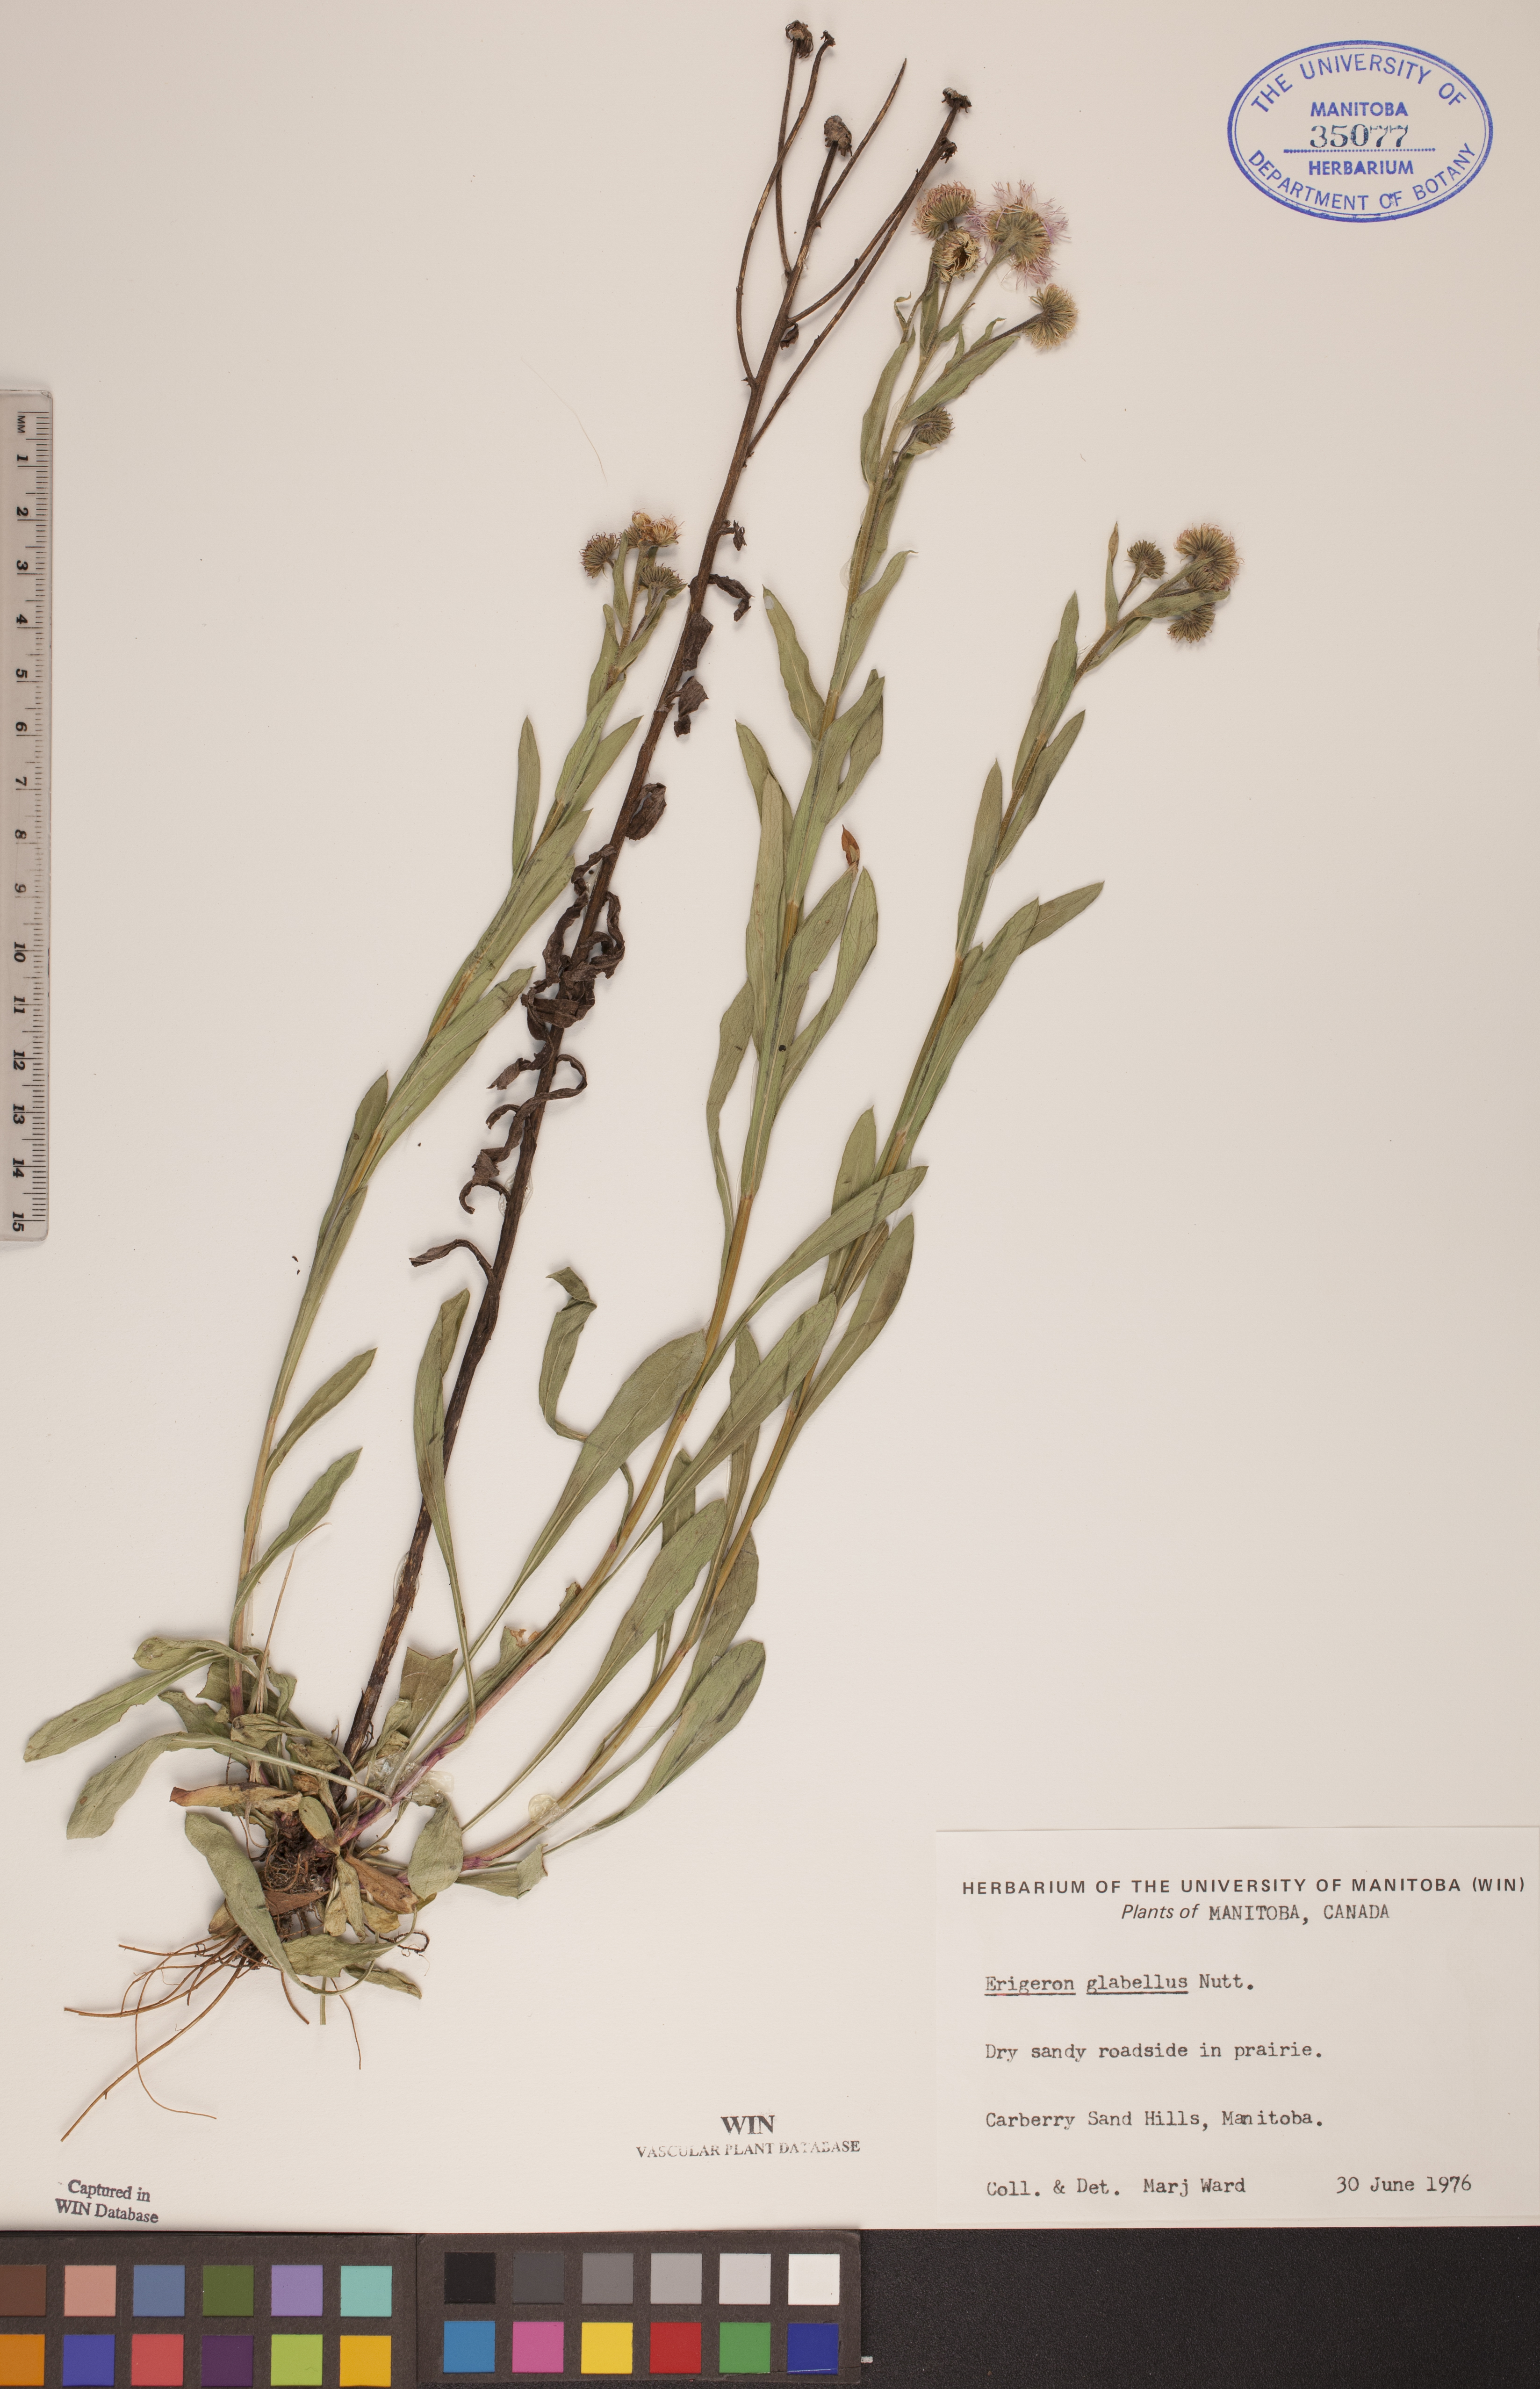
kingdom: Plantae
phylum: Tracheophyta
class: Magnoliopsida
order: Asterales
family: Asteraceae
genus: Erigeron
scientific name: Erigeron glabellus
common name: Smooth fleabane
